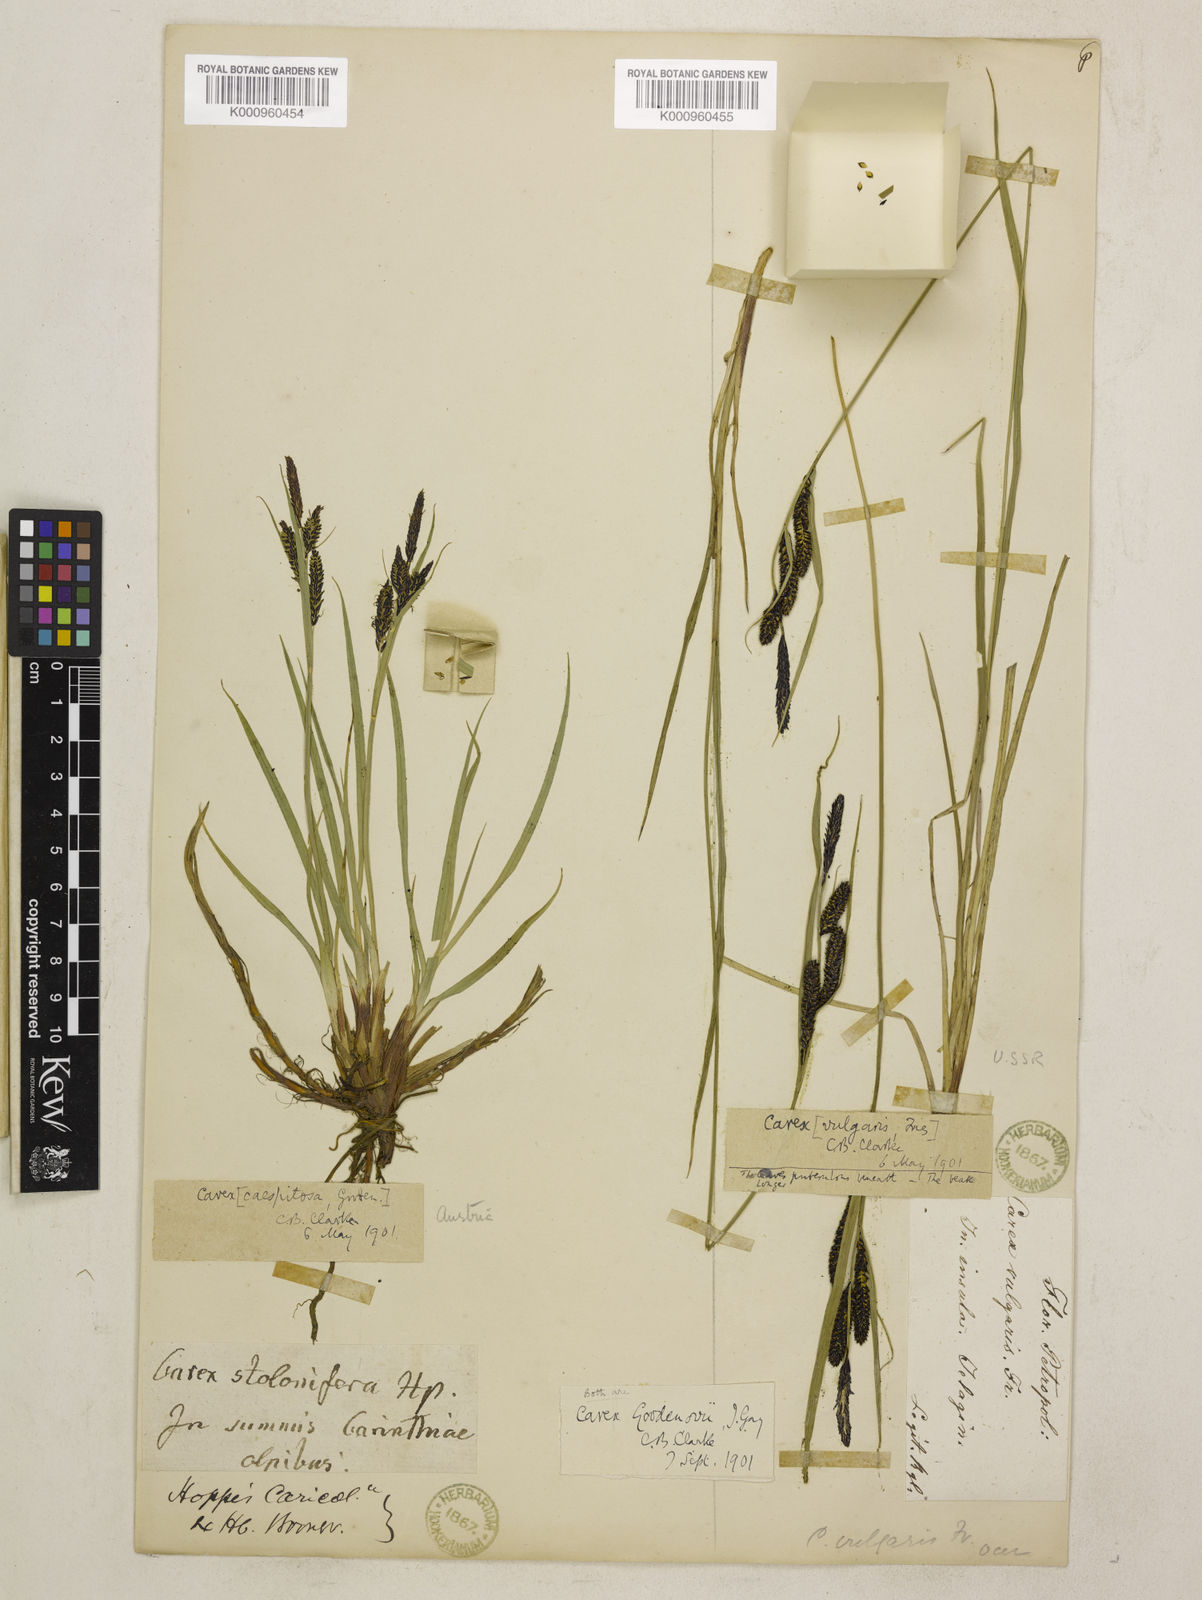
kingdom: Plantae
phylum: Tracheophyta
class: Liliopsida
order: Poales
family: Cyperaceae
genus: Carex
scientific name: Carex nigra
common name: Common sedge
